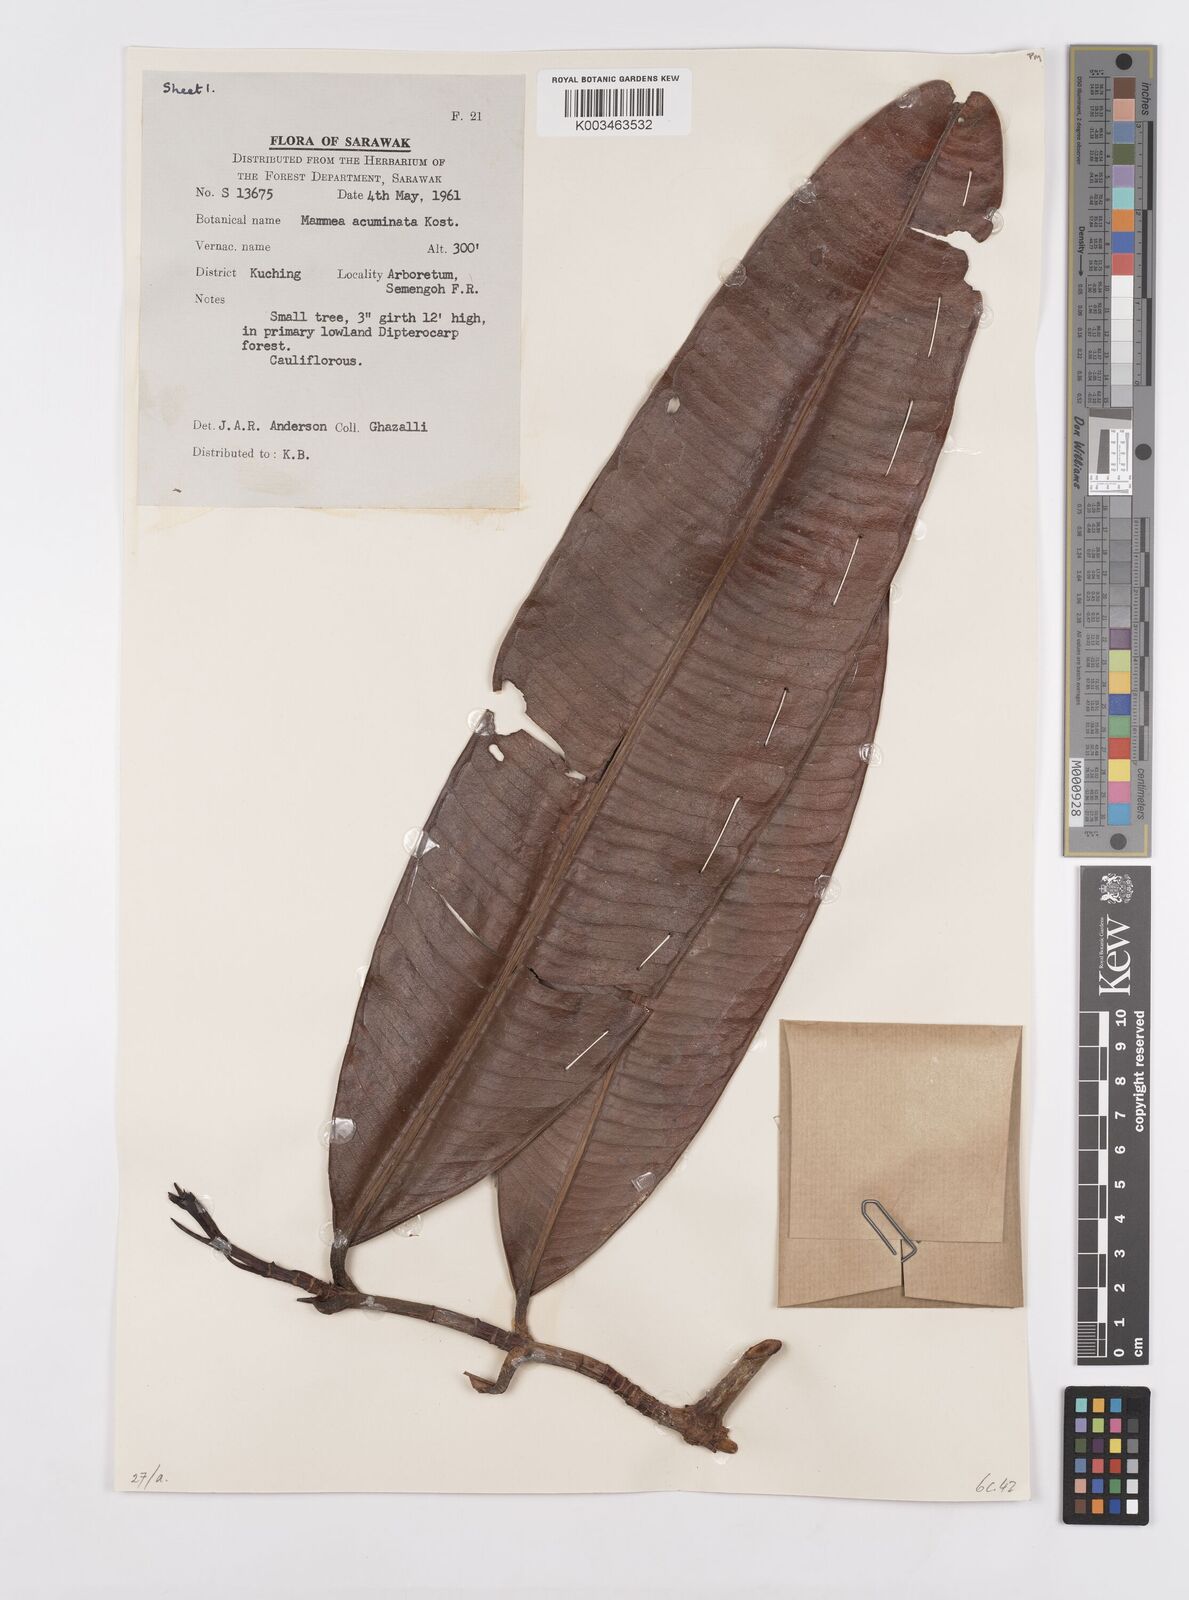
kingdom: Plantae
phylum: Tracheophyta
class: Magnoliopsida
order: Malpighiales
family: Calophyllaceae
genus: Mammea
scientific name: Mammea acuminata
